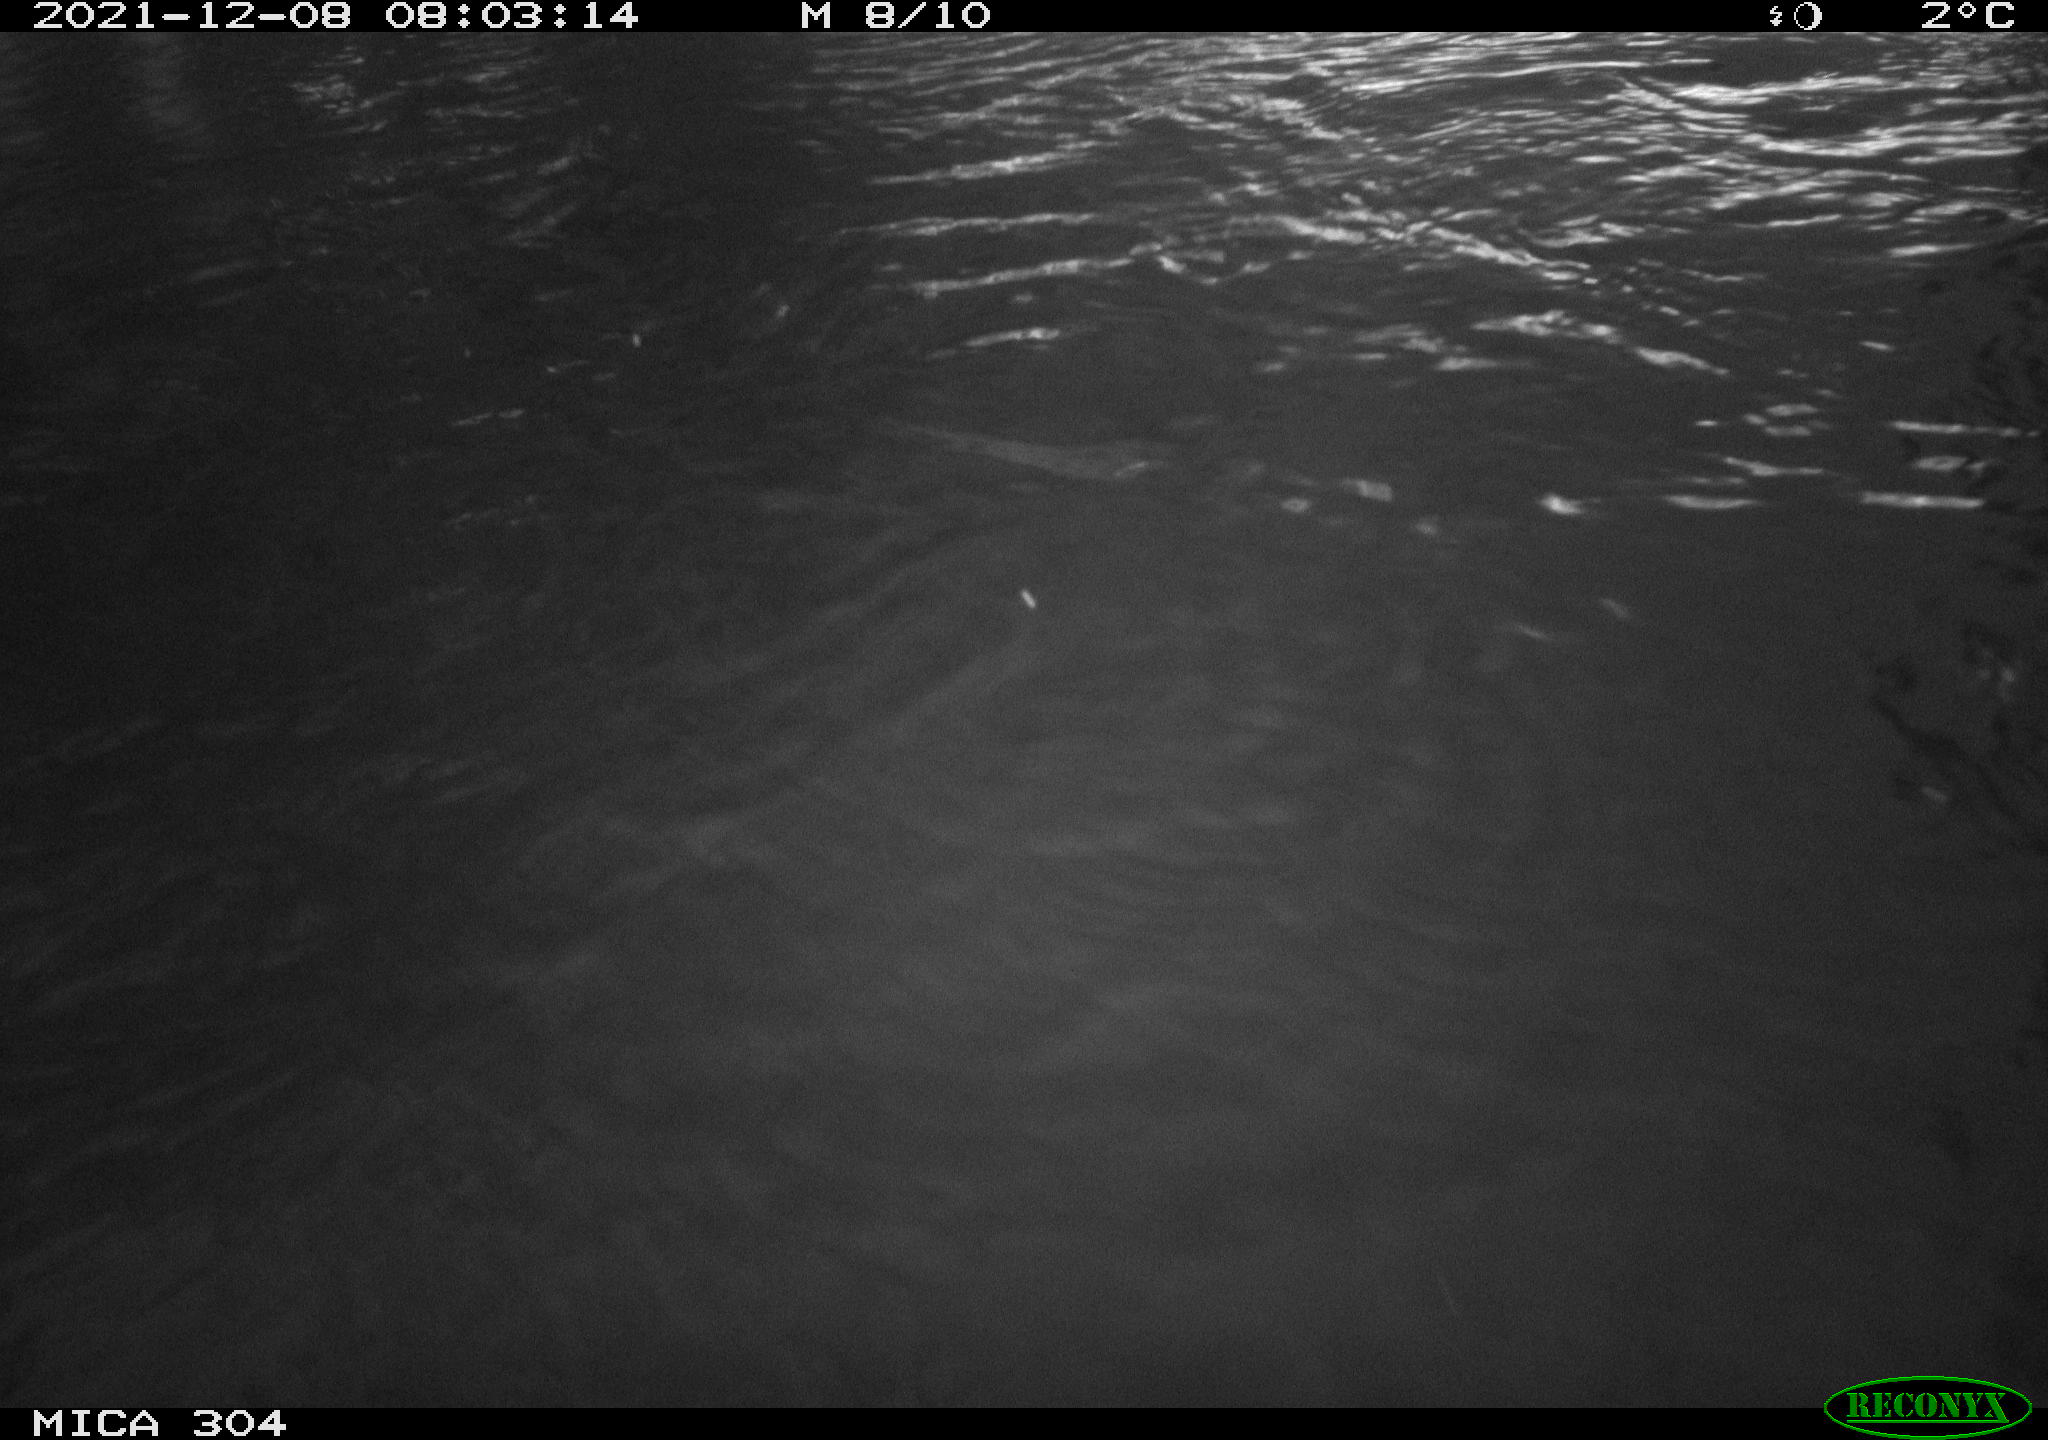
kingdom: Animalia
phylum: Chordata
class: Aves
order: Anseriformes
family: Anatidae
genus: Anas
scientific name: Anas platyrhynchos
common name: Mallard
